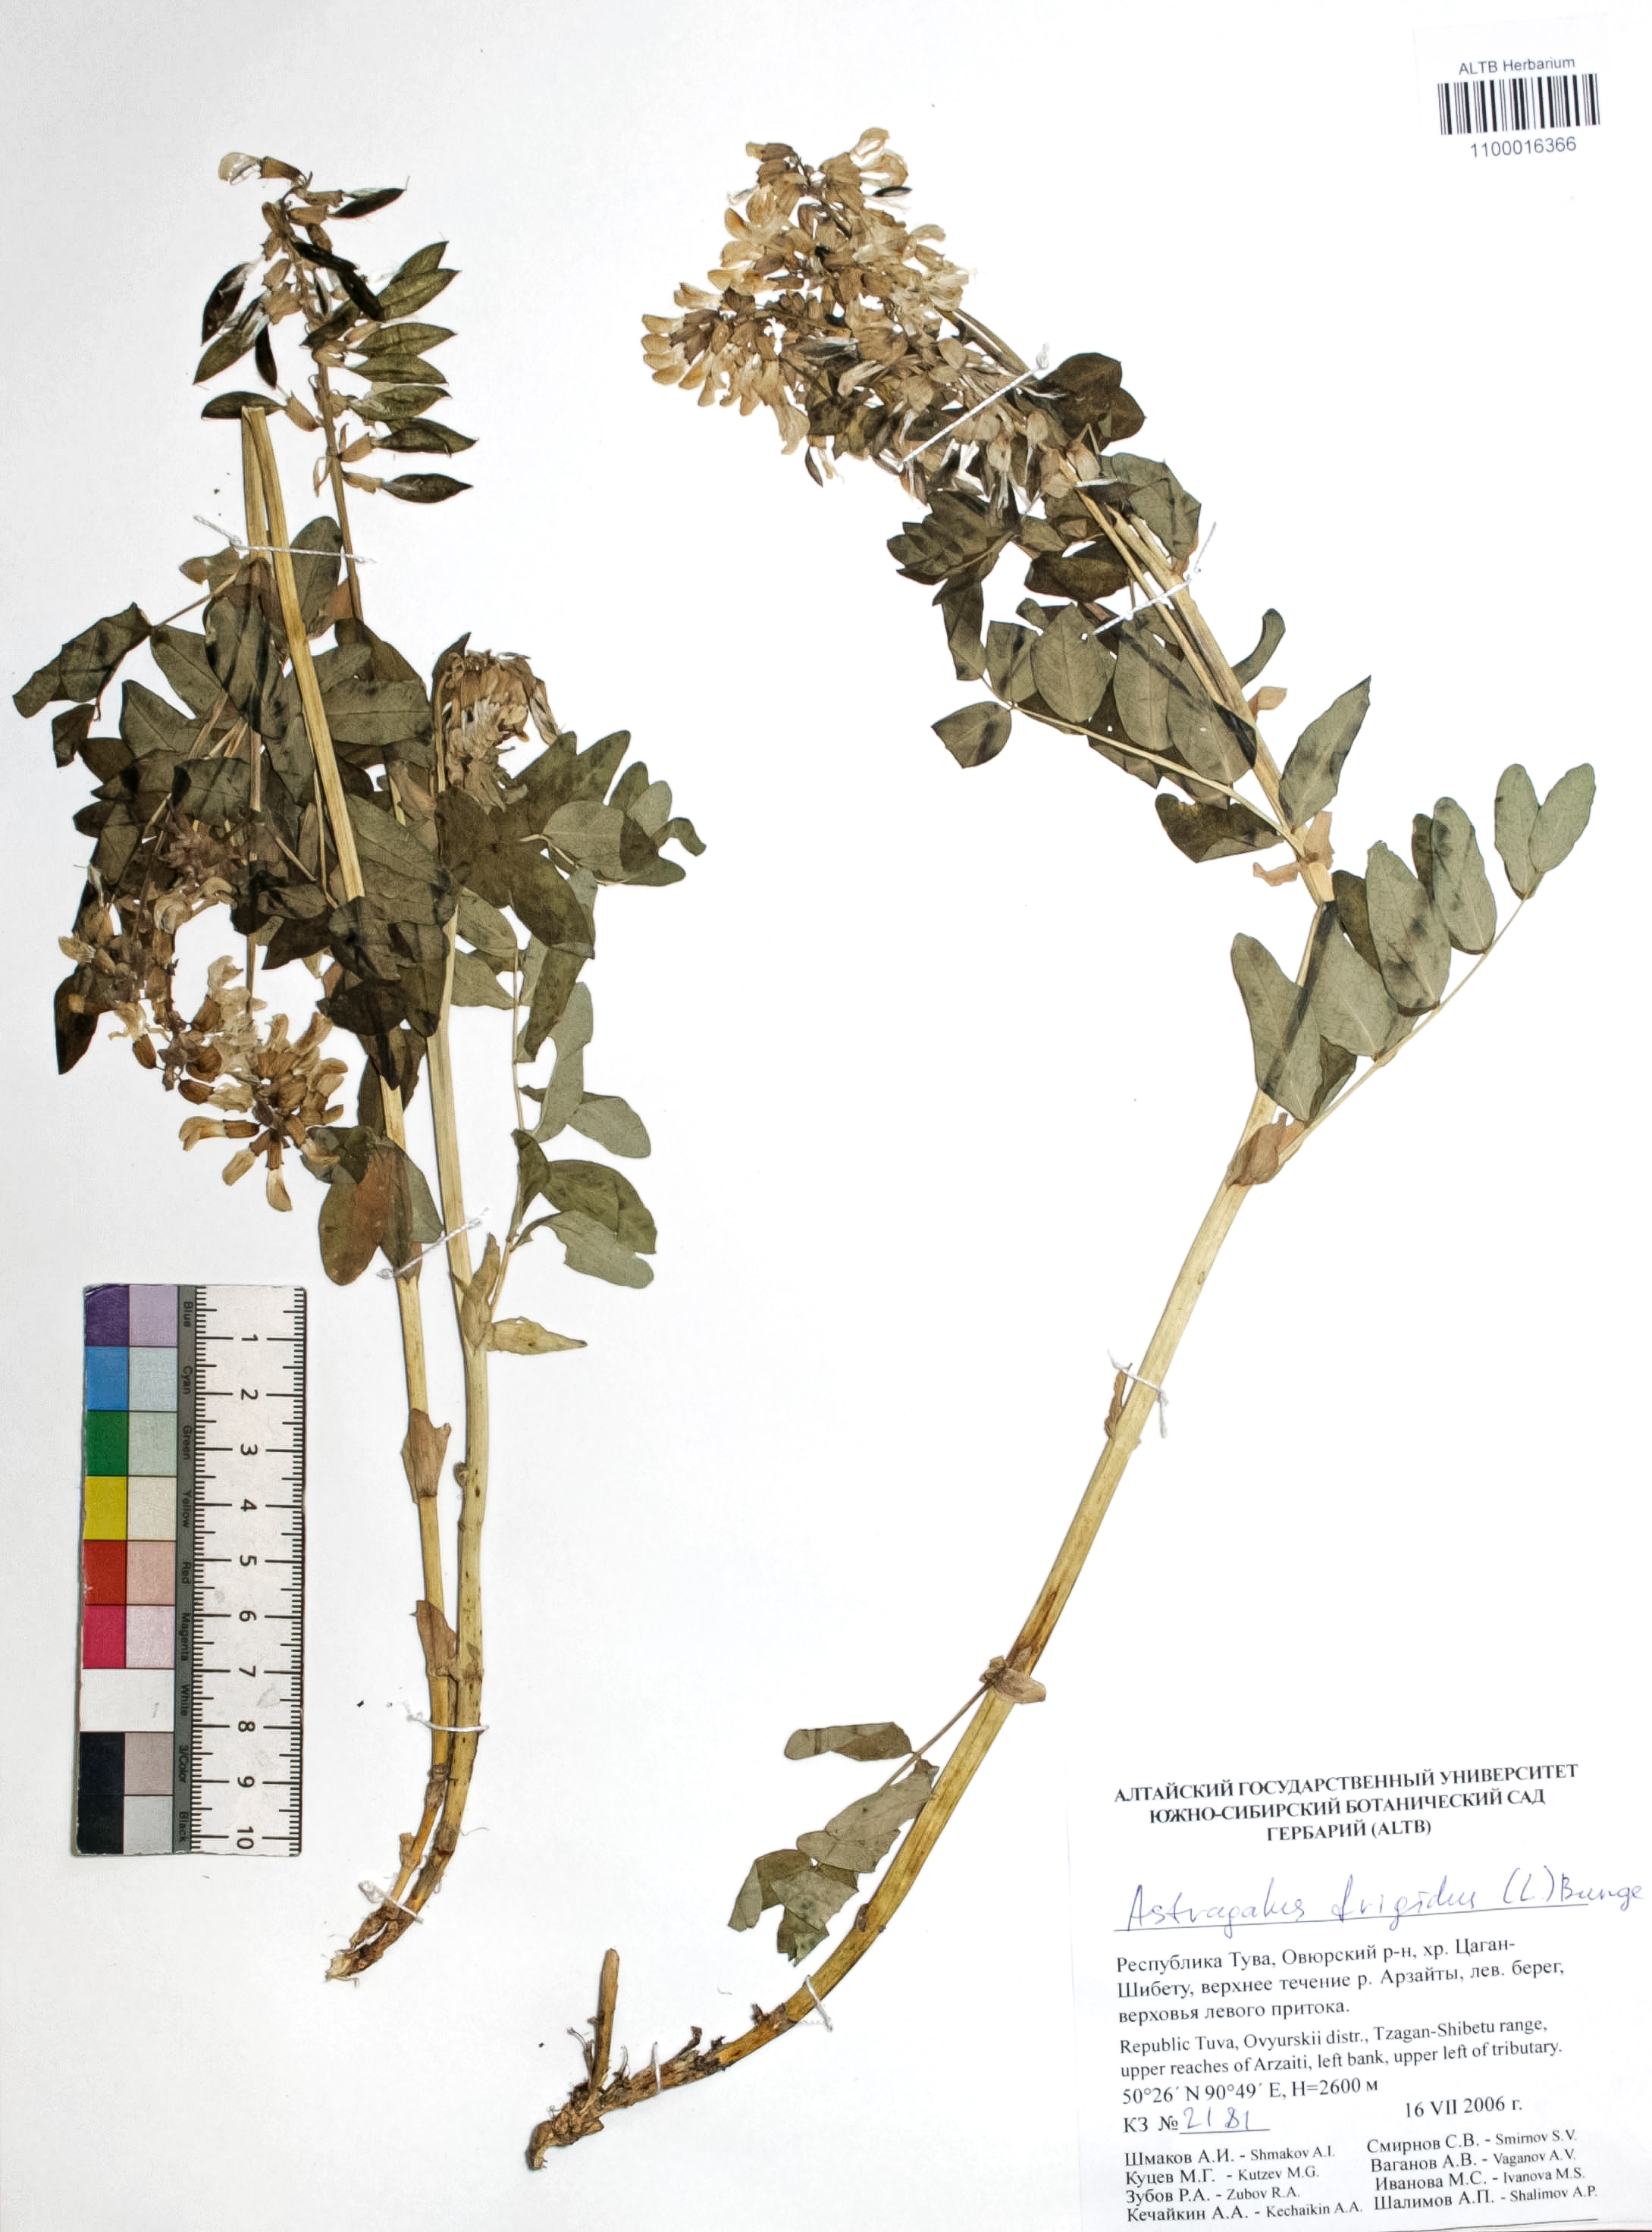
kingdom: Plantae
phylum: Tracheophyta
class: Magnoliopsida
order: Fabales
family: Fabaceae
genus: Astragalus
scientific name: Astragalus frigidus
